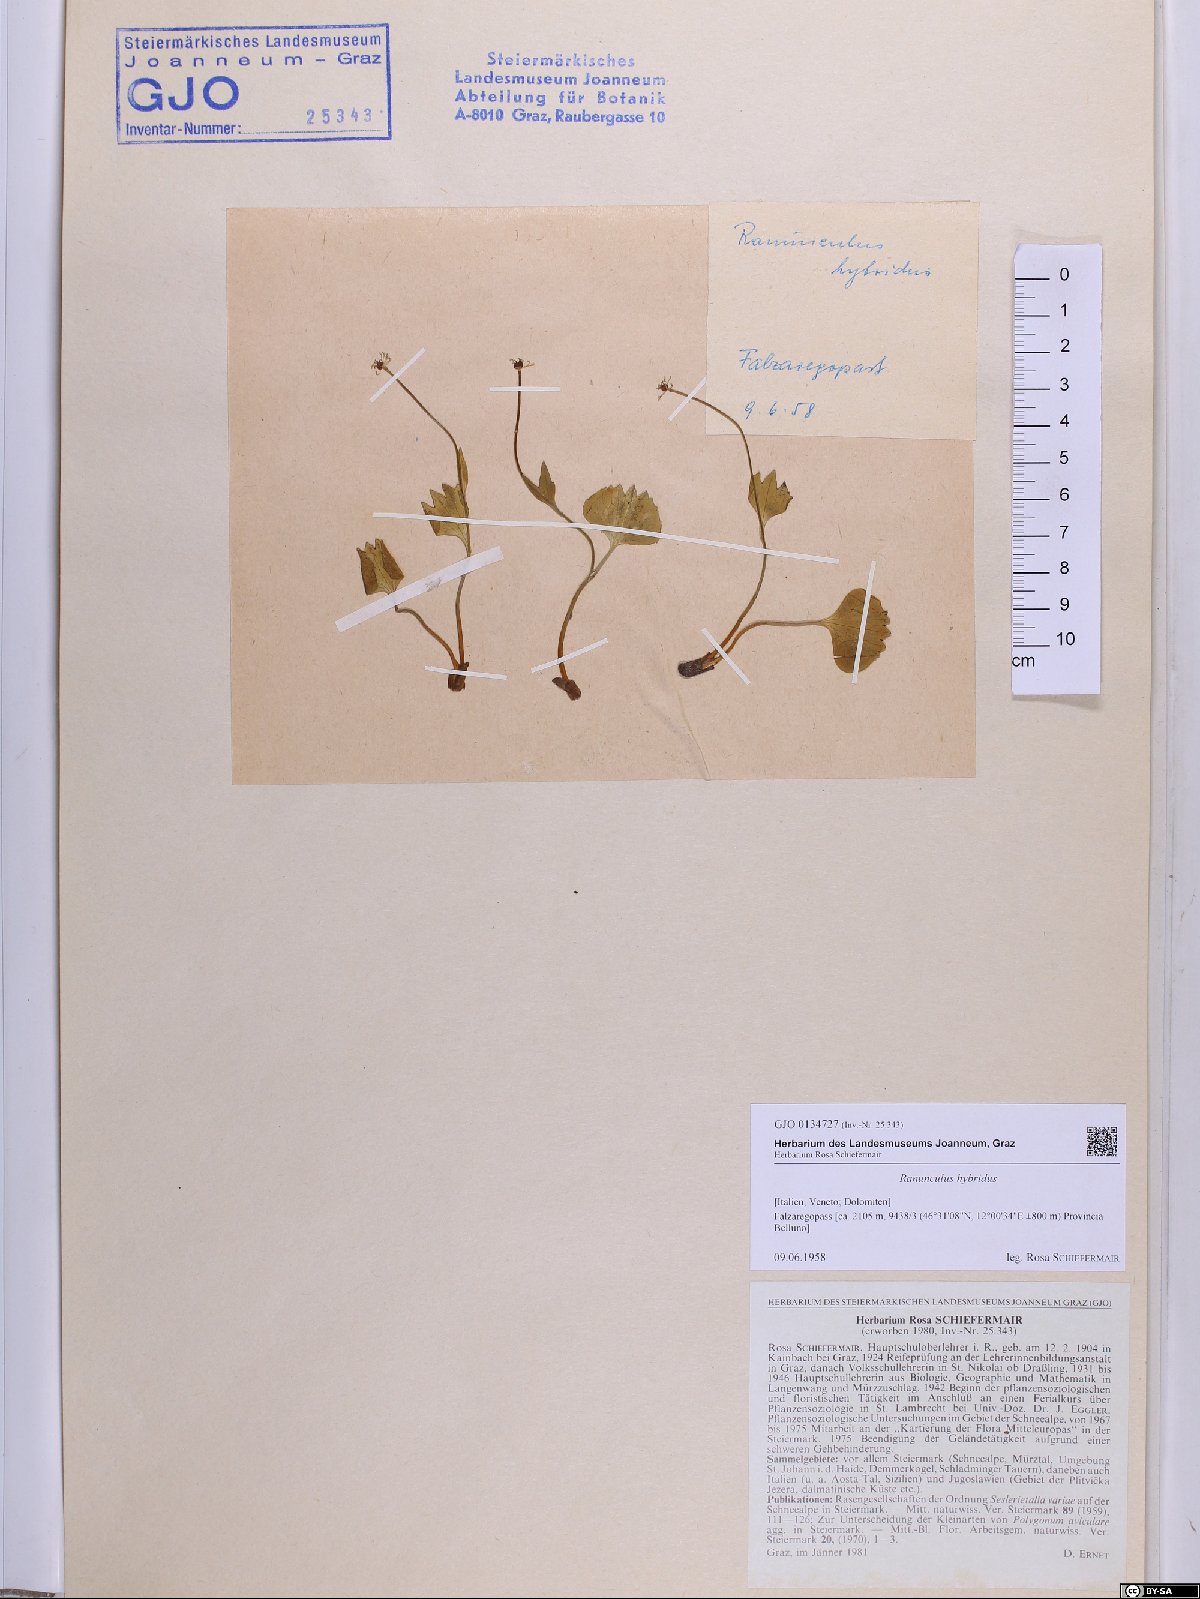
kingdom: Plantae
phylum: Tracheophyta
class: Magnoliopsida
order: Ranunculales
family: Ranunculaceae
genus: Ranunculus
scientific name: Ranunculus hybridus
